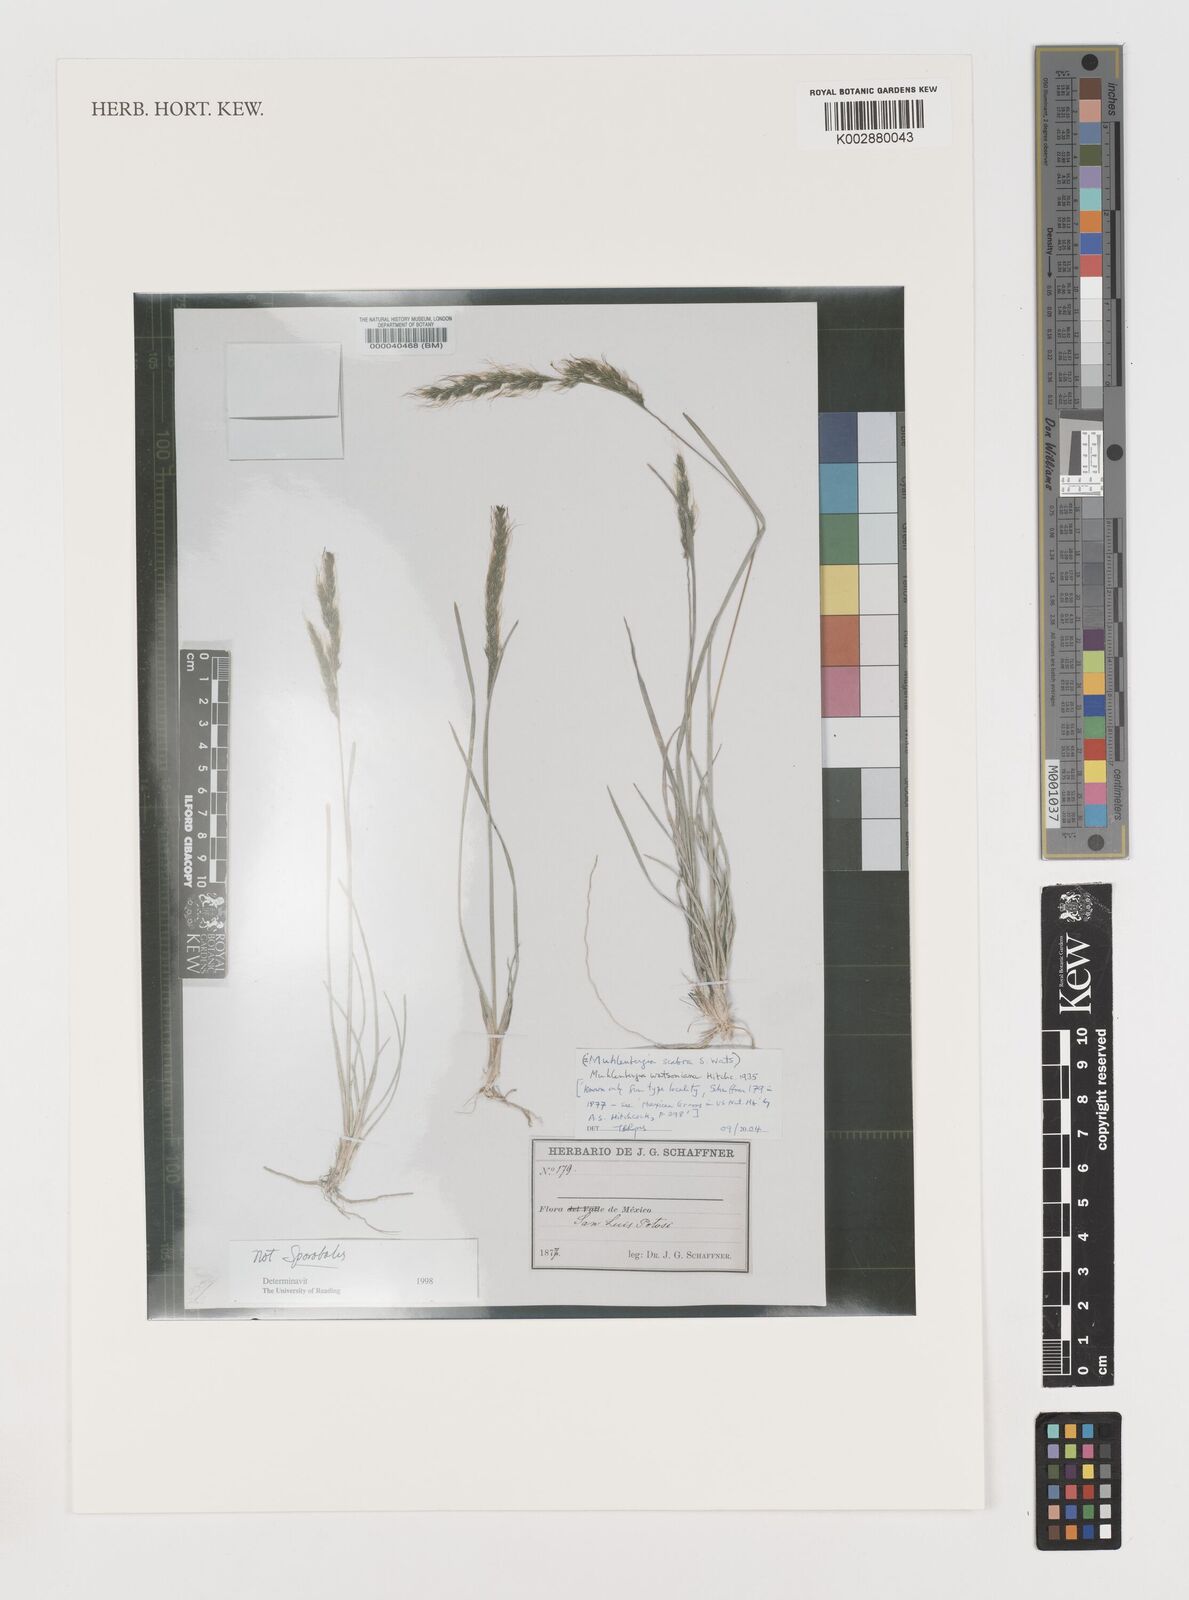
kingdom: Plantae
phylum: Tracheophyta
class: Liliopsida
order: Poales
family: Poaceae
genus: Muhlenbergia
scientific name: Muhlenbergia watsoniana
